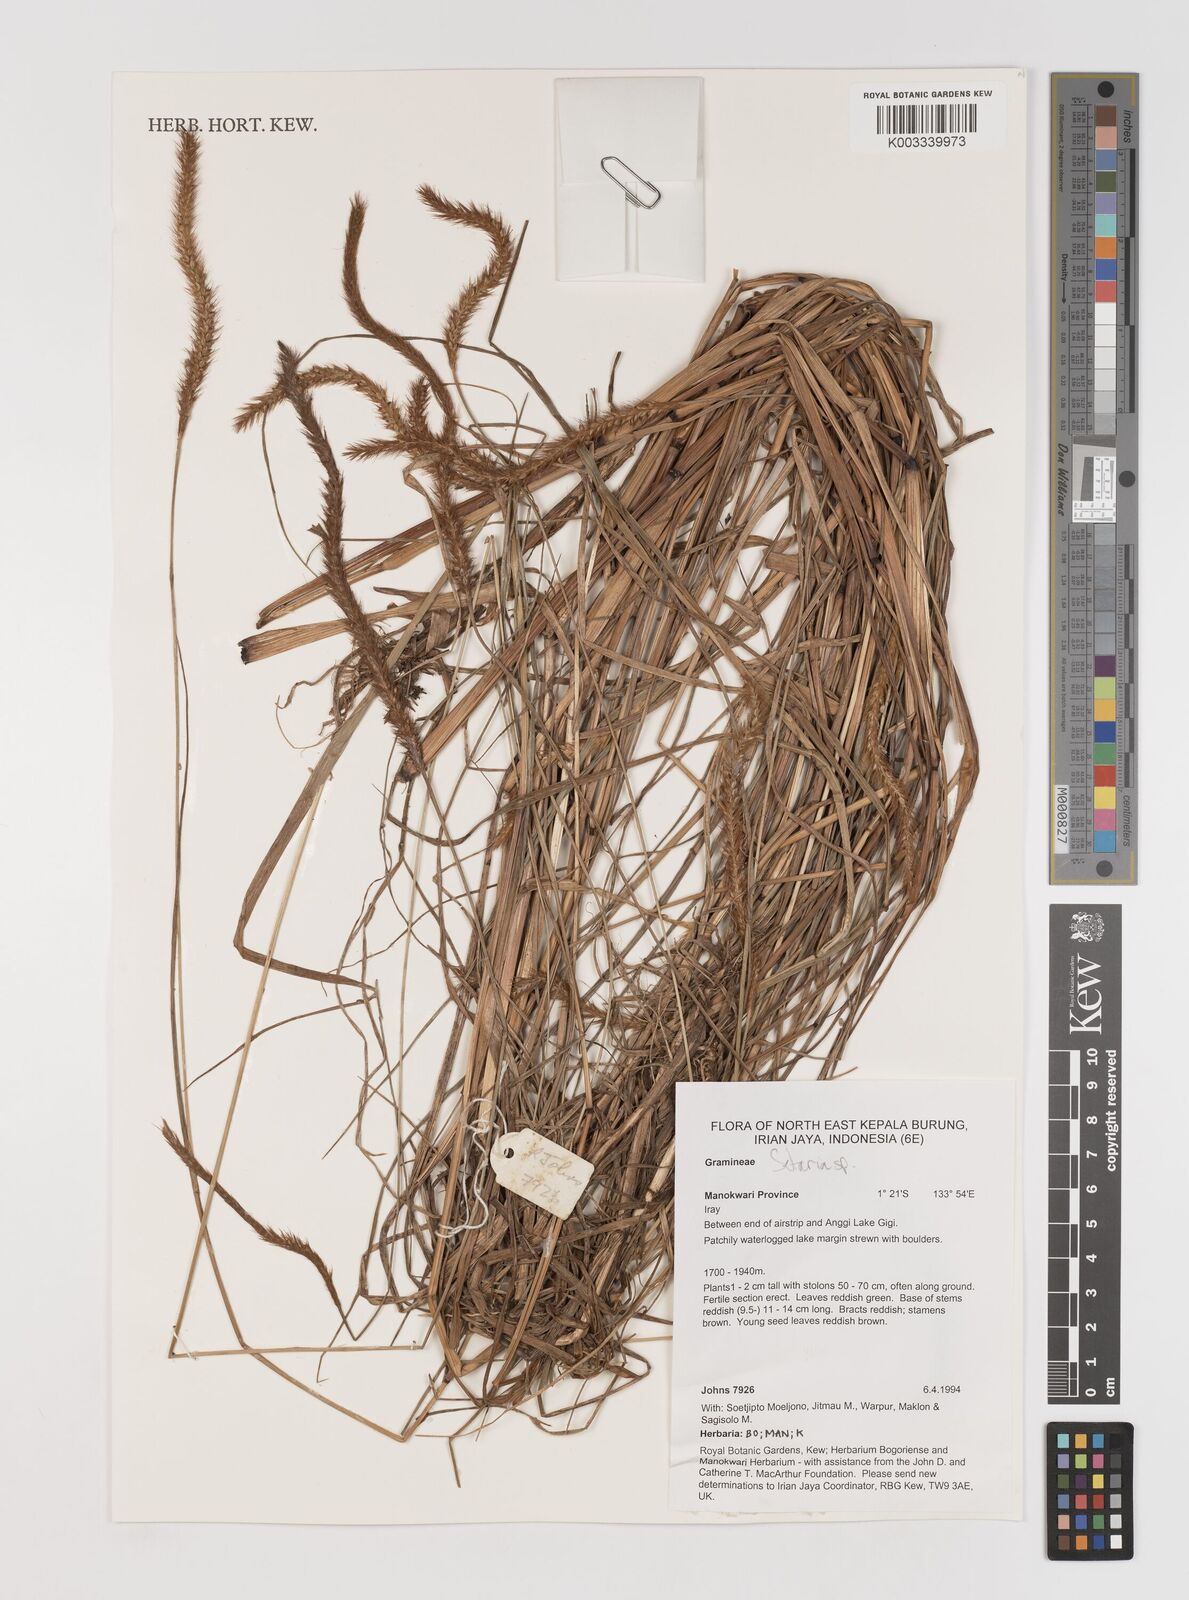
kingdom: Plantae
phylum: Tracheophyta
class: Liliopsida
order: Poales
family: Poaceae
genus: Setaria
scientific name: Setaria
